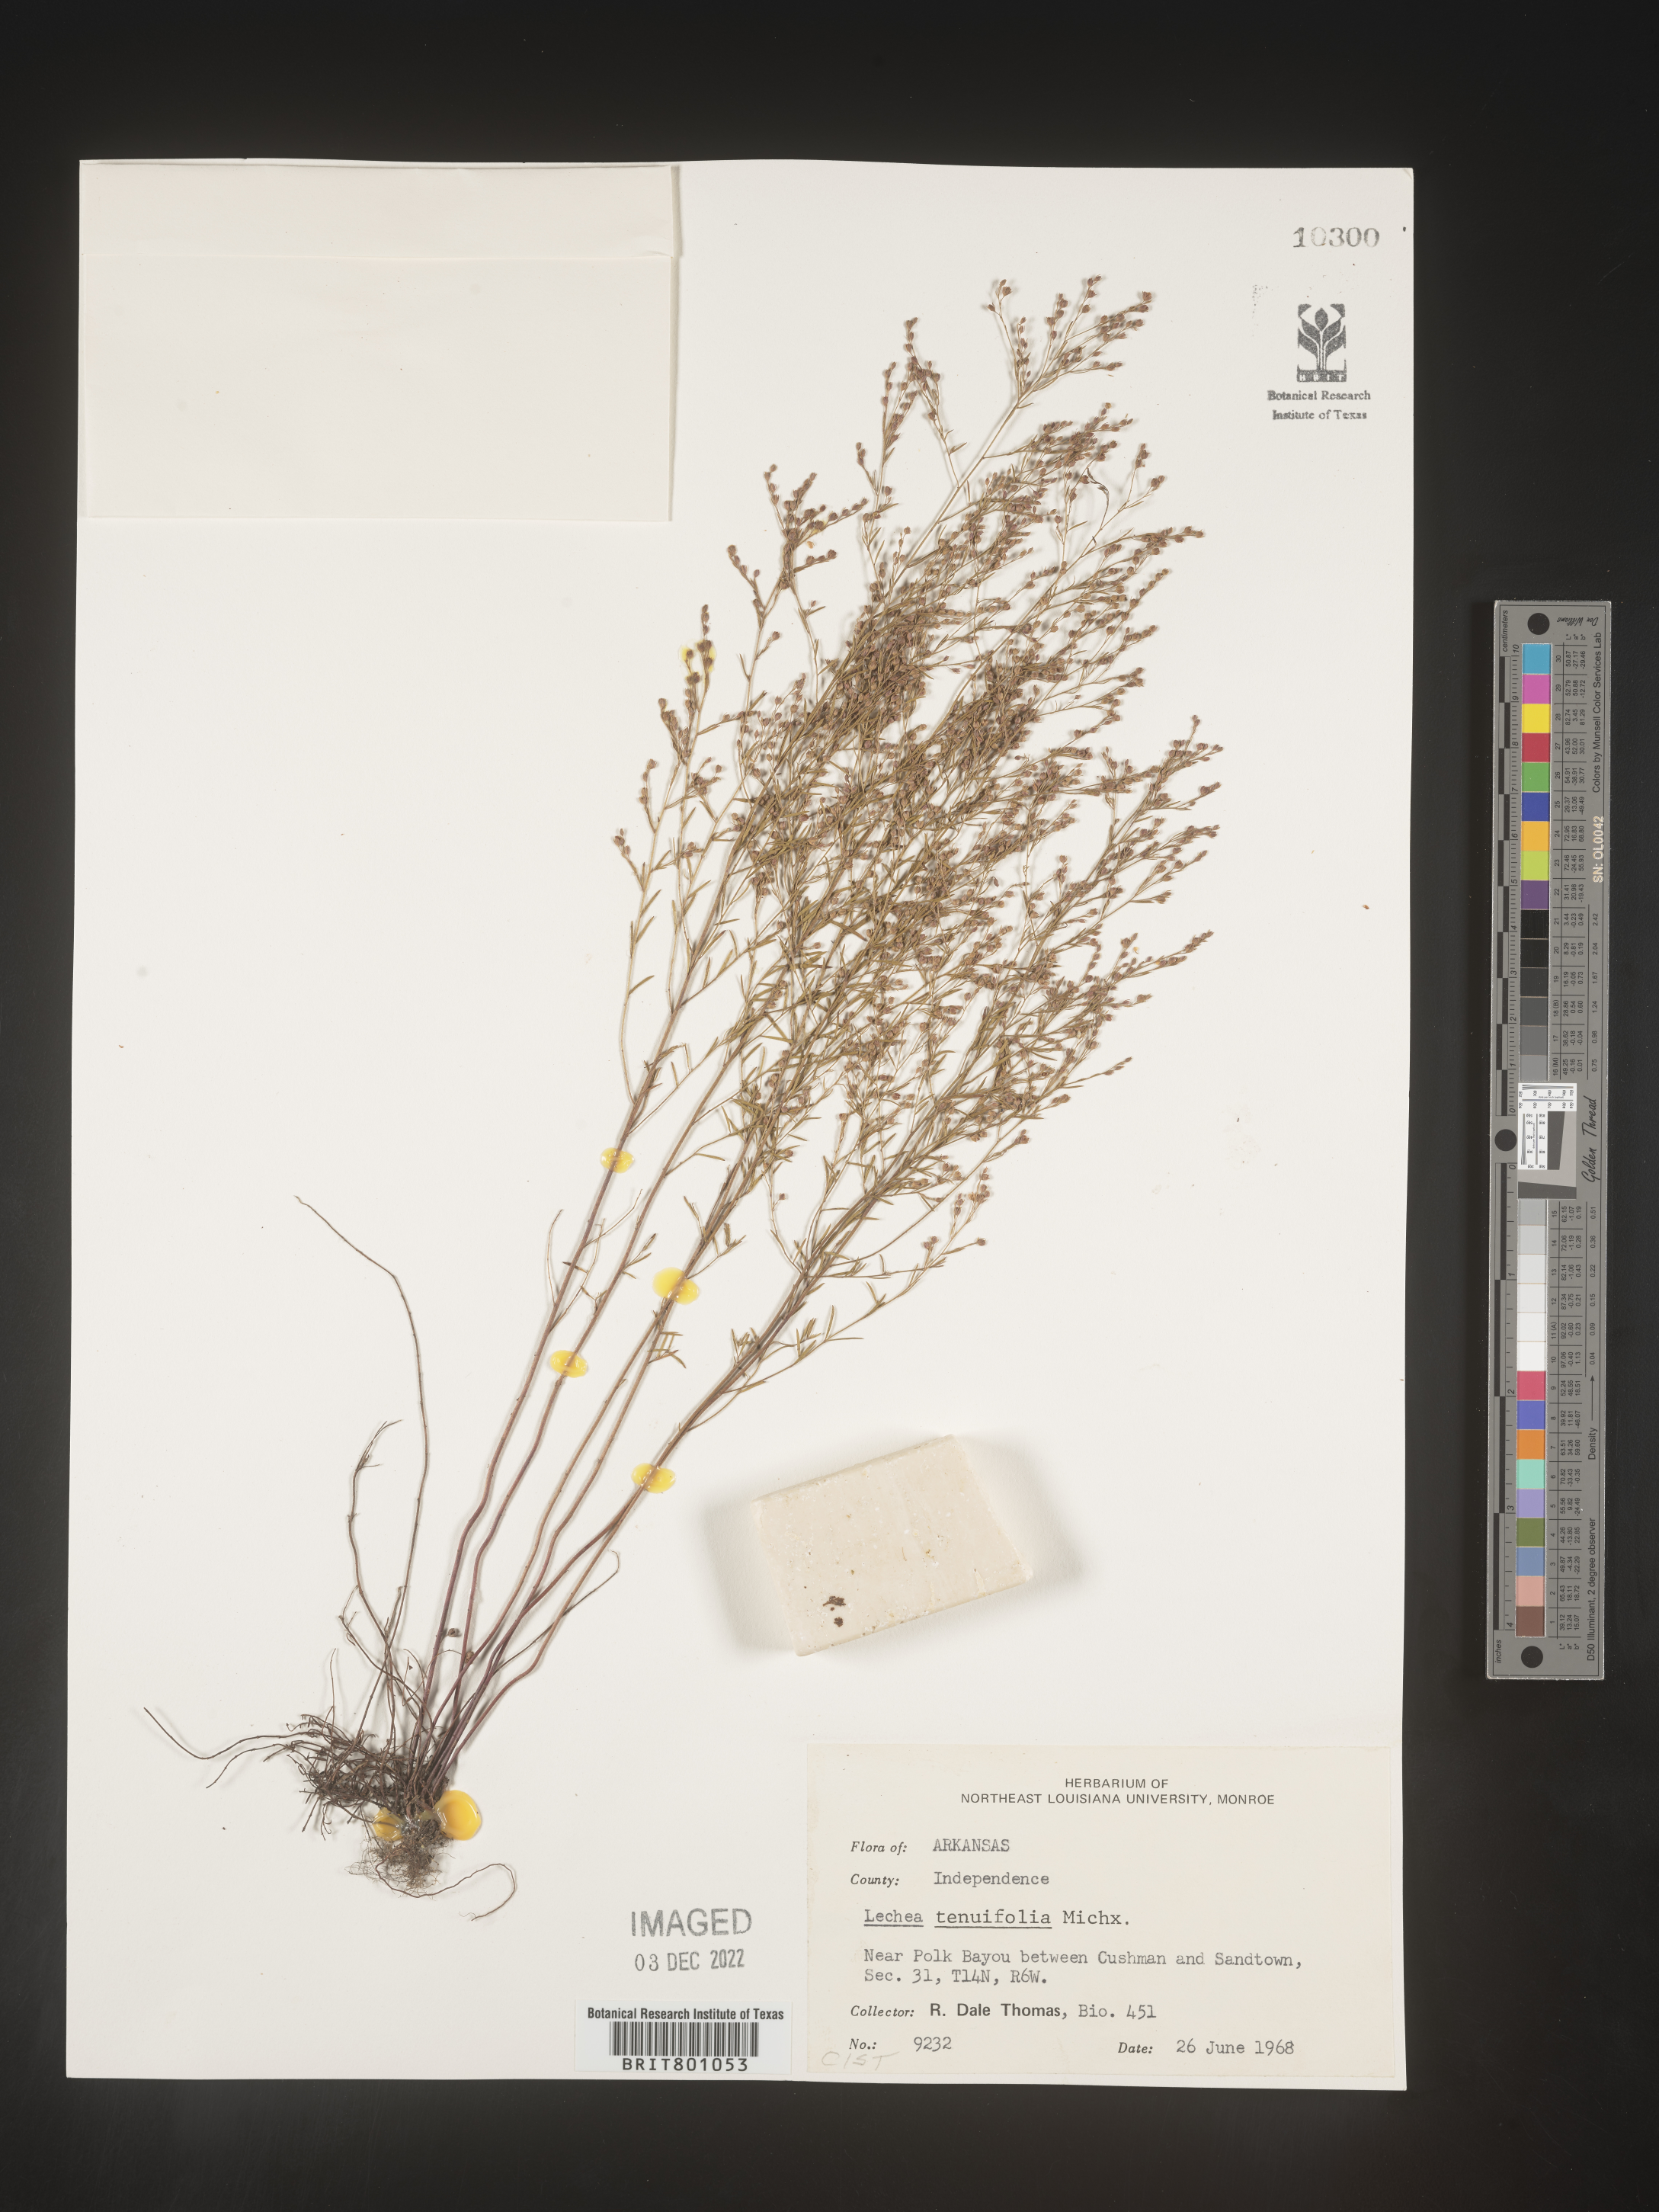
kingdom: Plantae
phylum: Tracheophyta
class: Magnoliopsida
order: Malvales
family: Cistaceae
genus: Lechea
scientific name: Lechea tenuifolia
